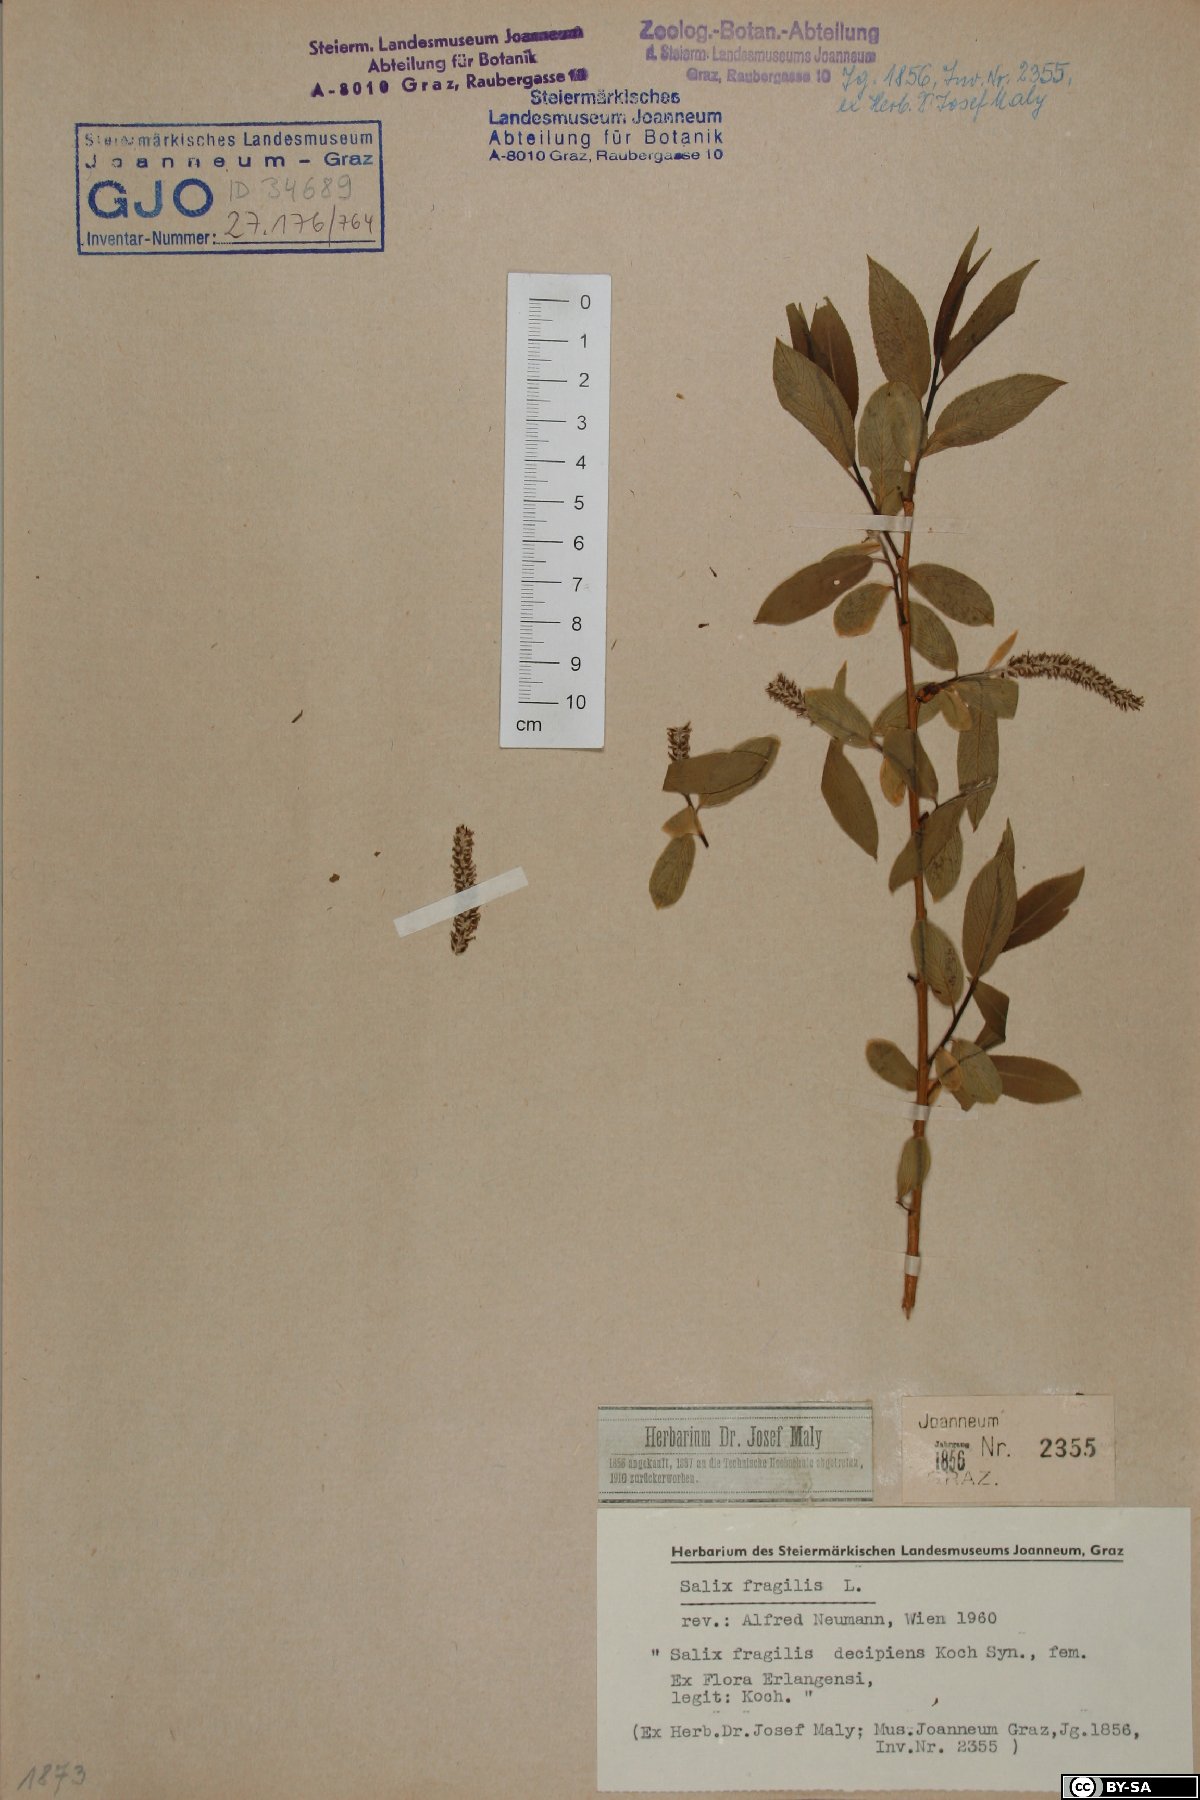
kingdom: Plantae
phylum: Tracheophyta
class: Magnoliopsida
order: Malpighiales
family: Salicaceae
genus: Salix
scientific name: Salix fragilis
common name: Crack willow
